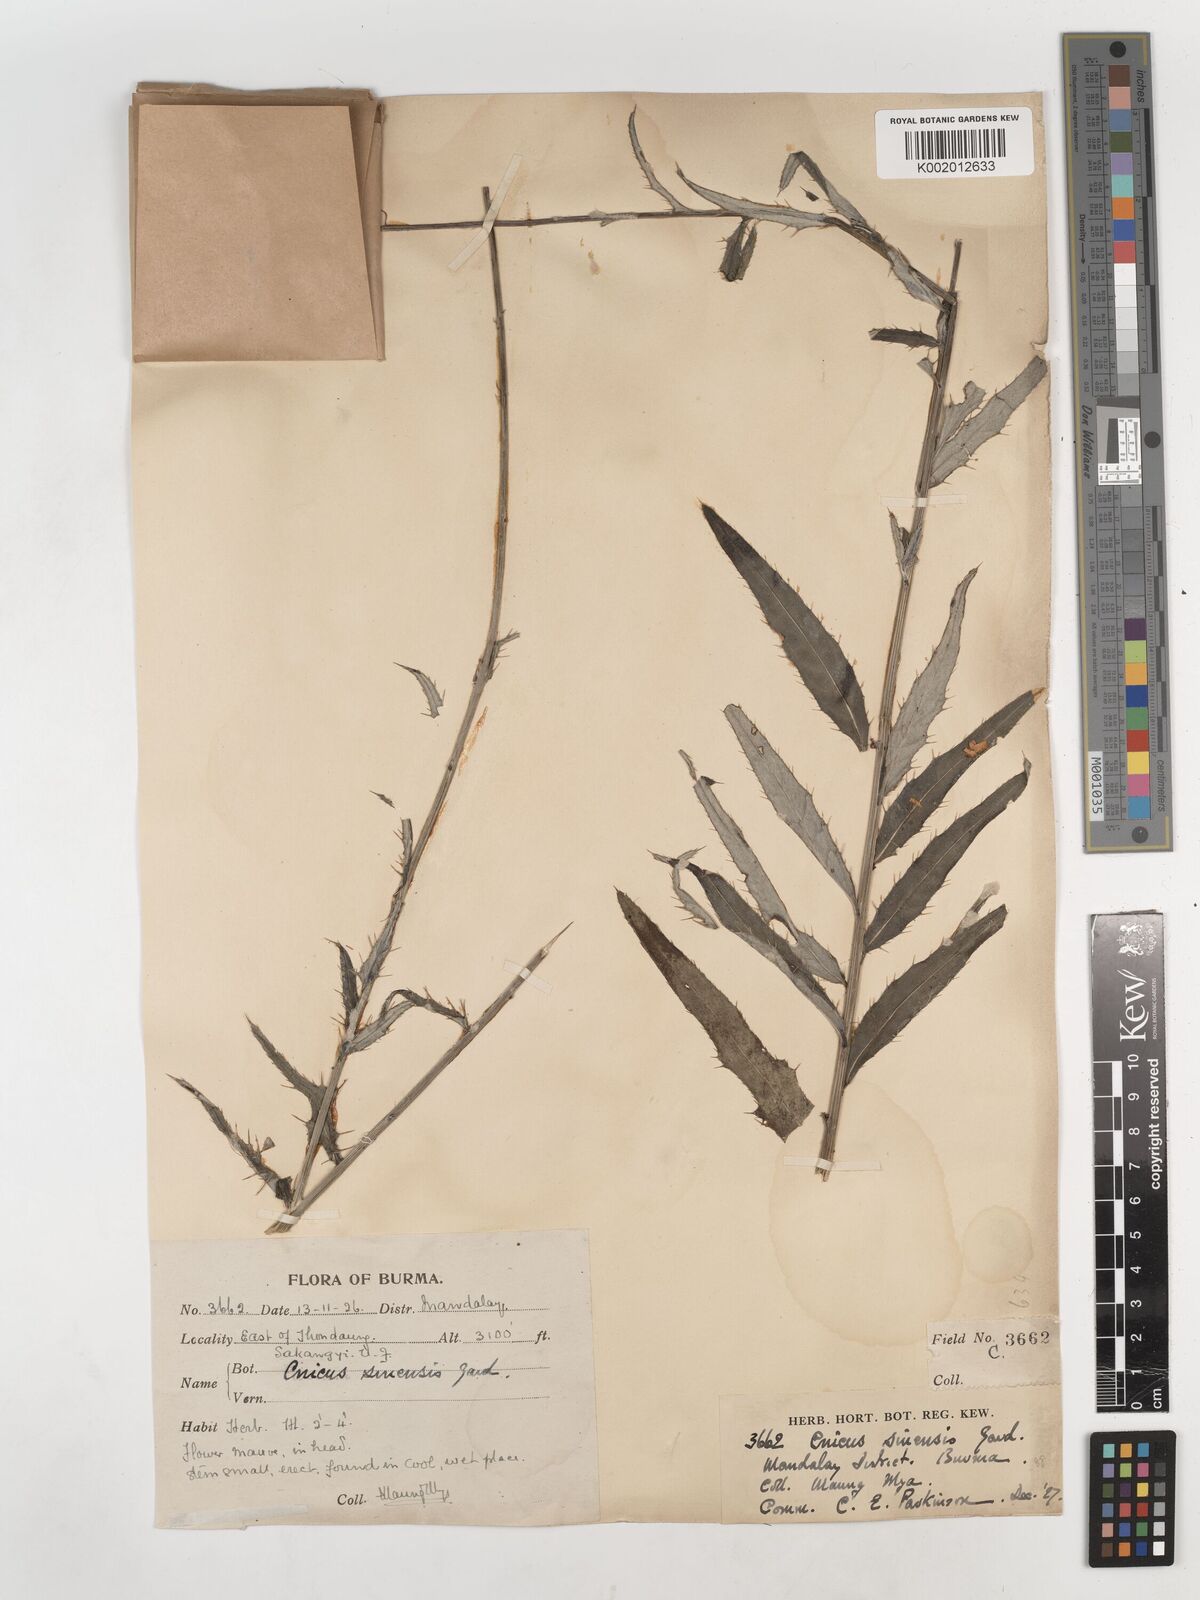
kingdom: Plantae
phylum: Tracheophyta
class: Magnoliopsida
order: Asterales
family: Asteraceae
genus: Cirsium
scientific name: Cirsium lineare
